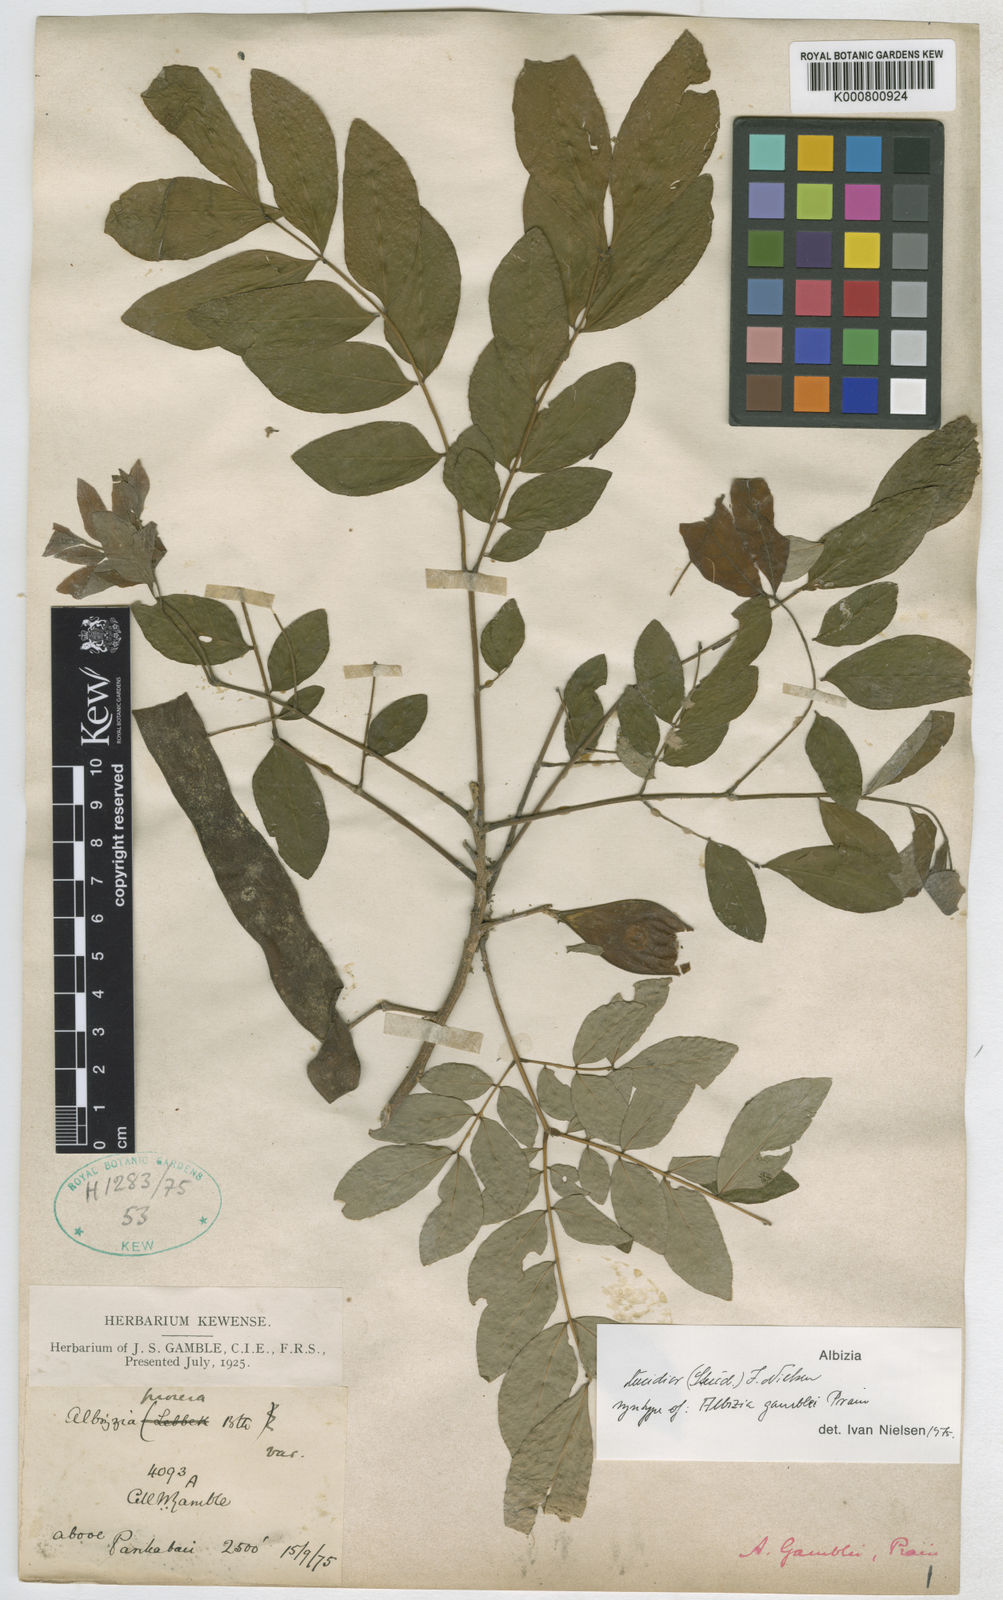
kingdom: Plantae
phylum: Tracheophyta
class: Magnoliopsida
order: Fabales
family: Fabaceae
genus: Albizia
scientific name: Albizia lucidior
